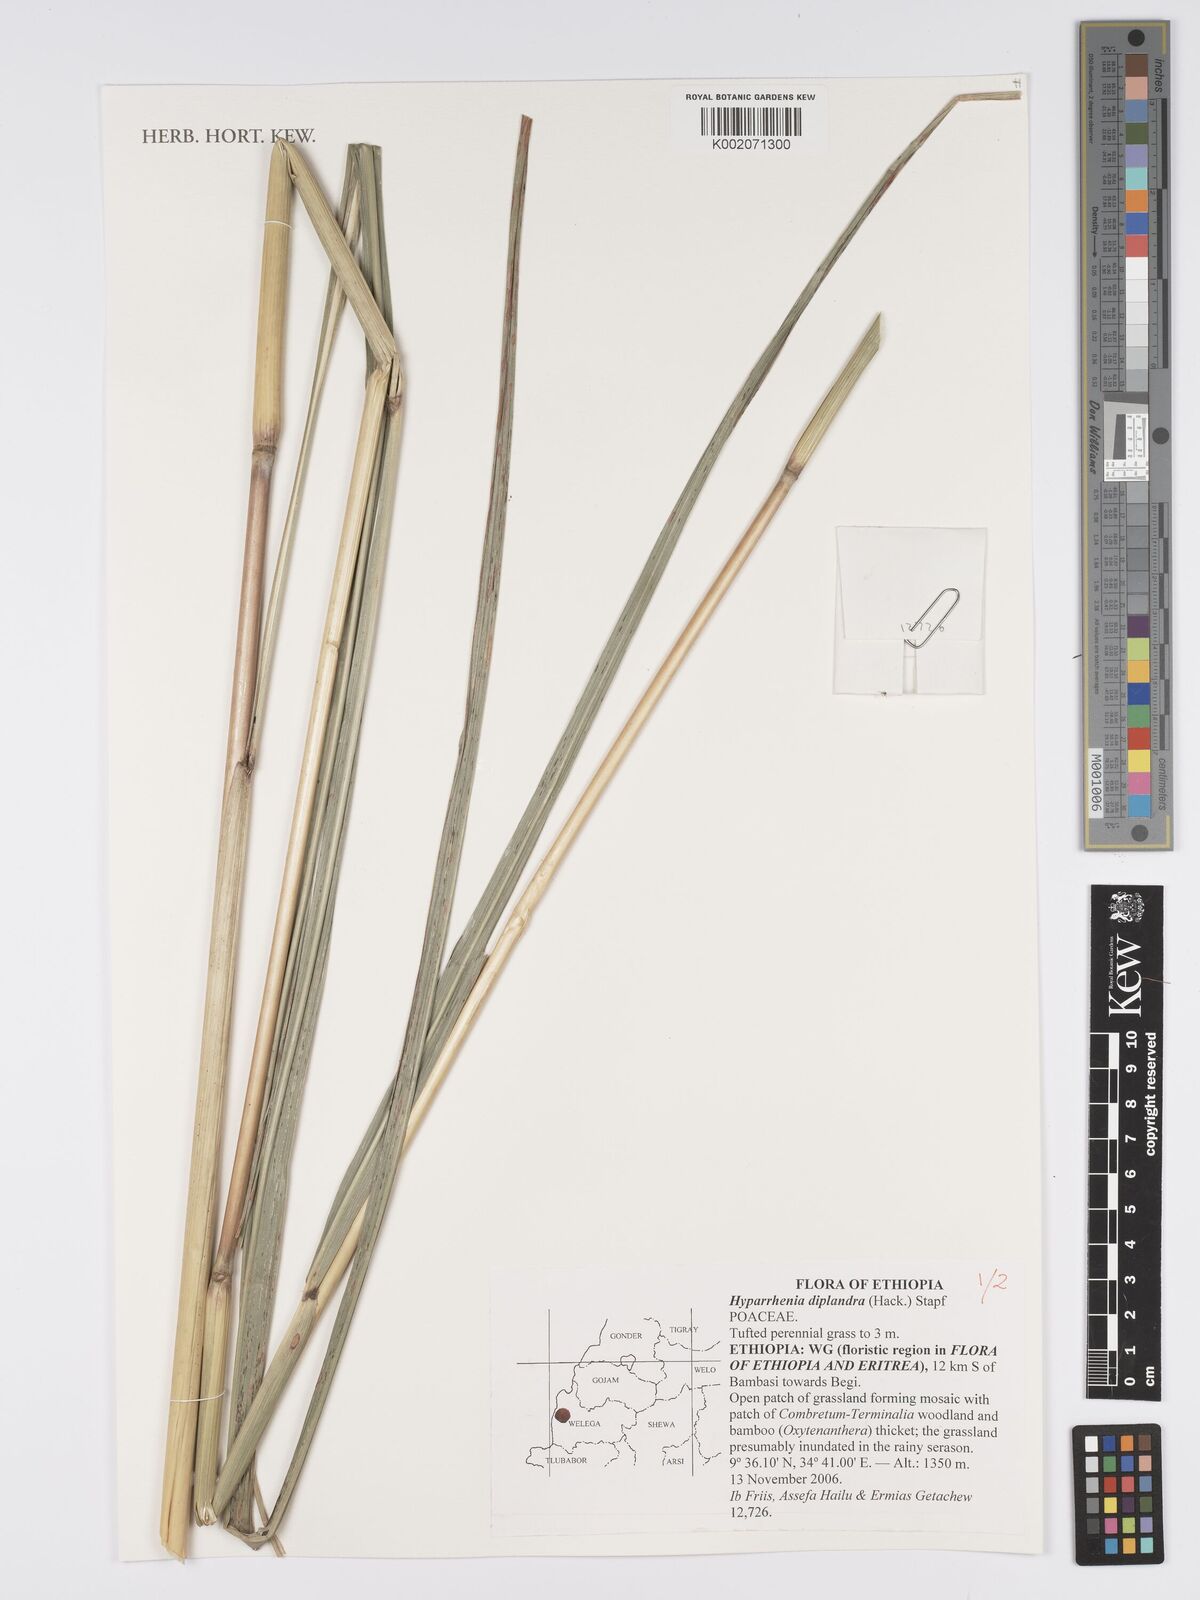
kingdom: Plantae
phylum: Tracheophyta
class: Liliopsida
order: Poales
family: Poaceae
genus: Hyparrhenia
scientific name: Hyparrhenia diplandra
